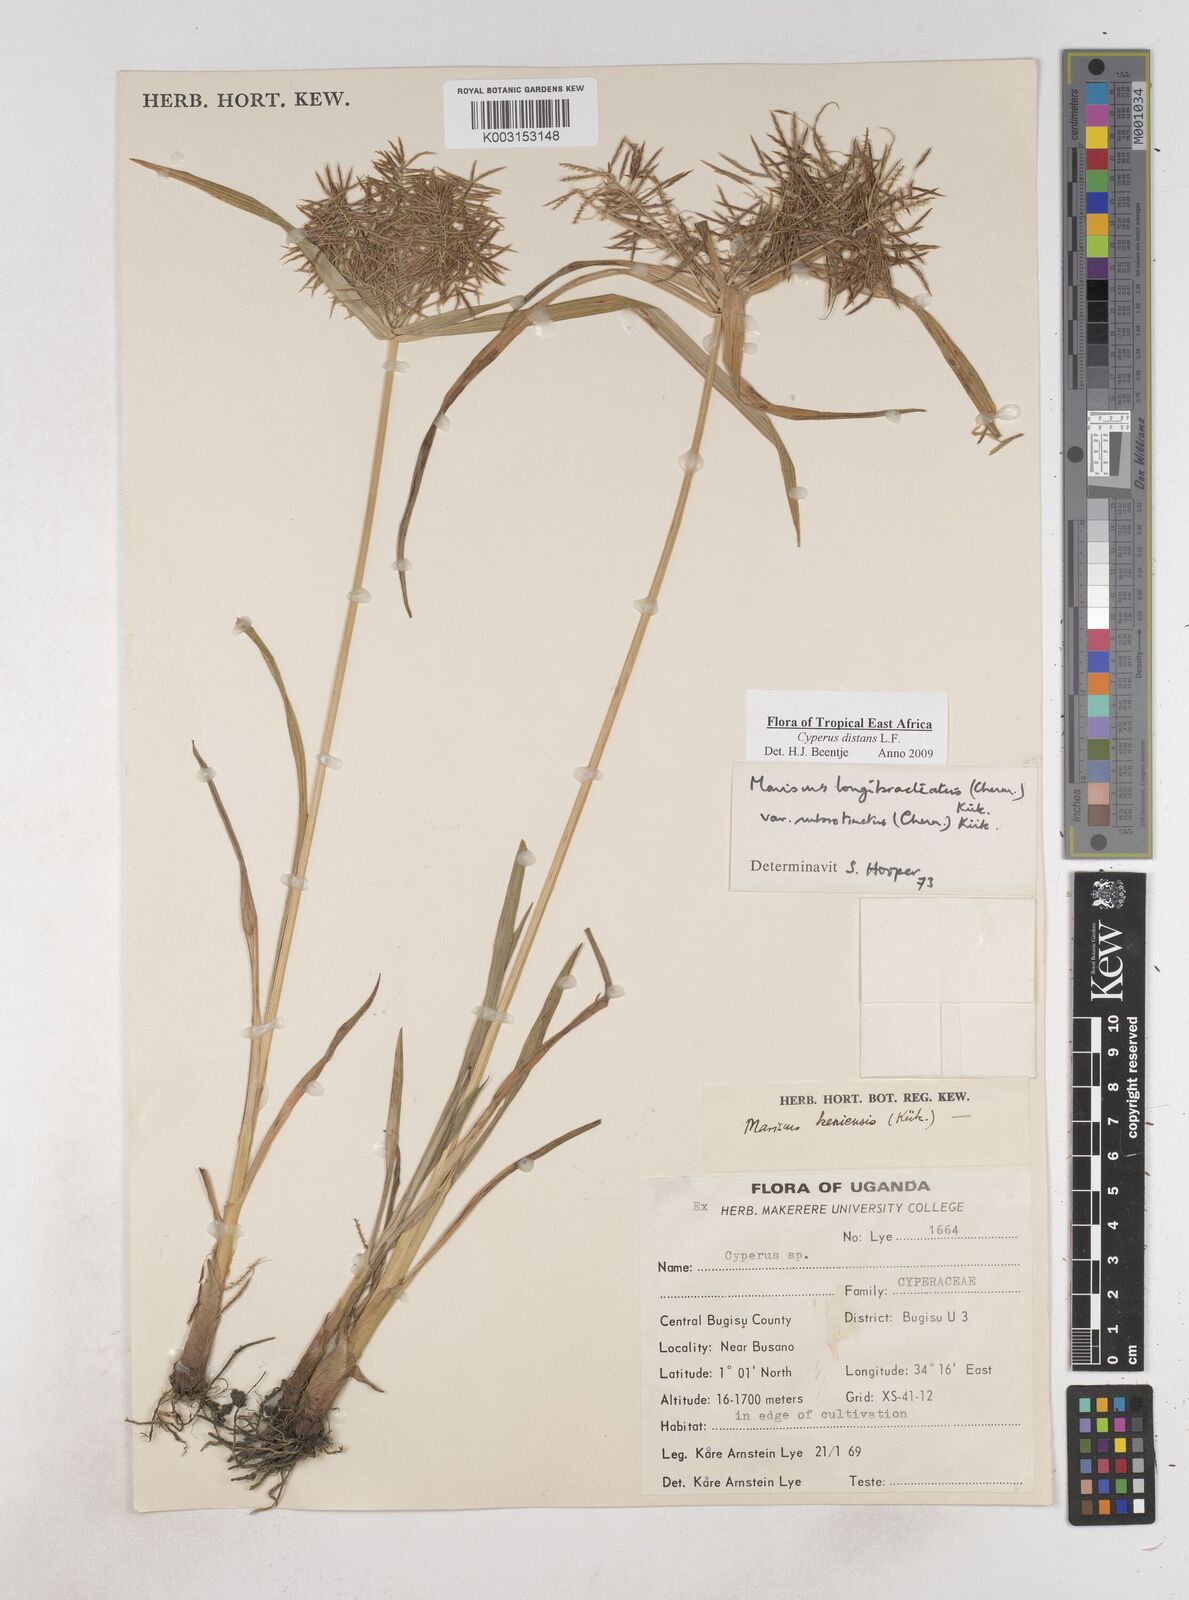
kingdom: Plantae
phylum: Tracheophyta
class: Liliopsida
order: Poales
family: Cyperaceae
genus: Cyperus
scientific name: Cyperus distans
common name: Slender cyperus
